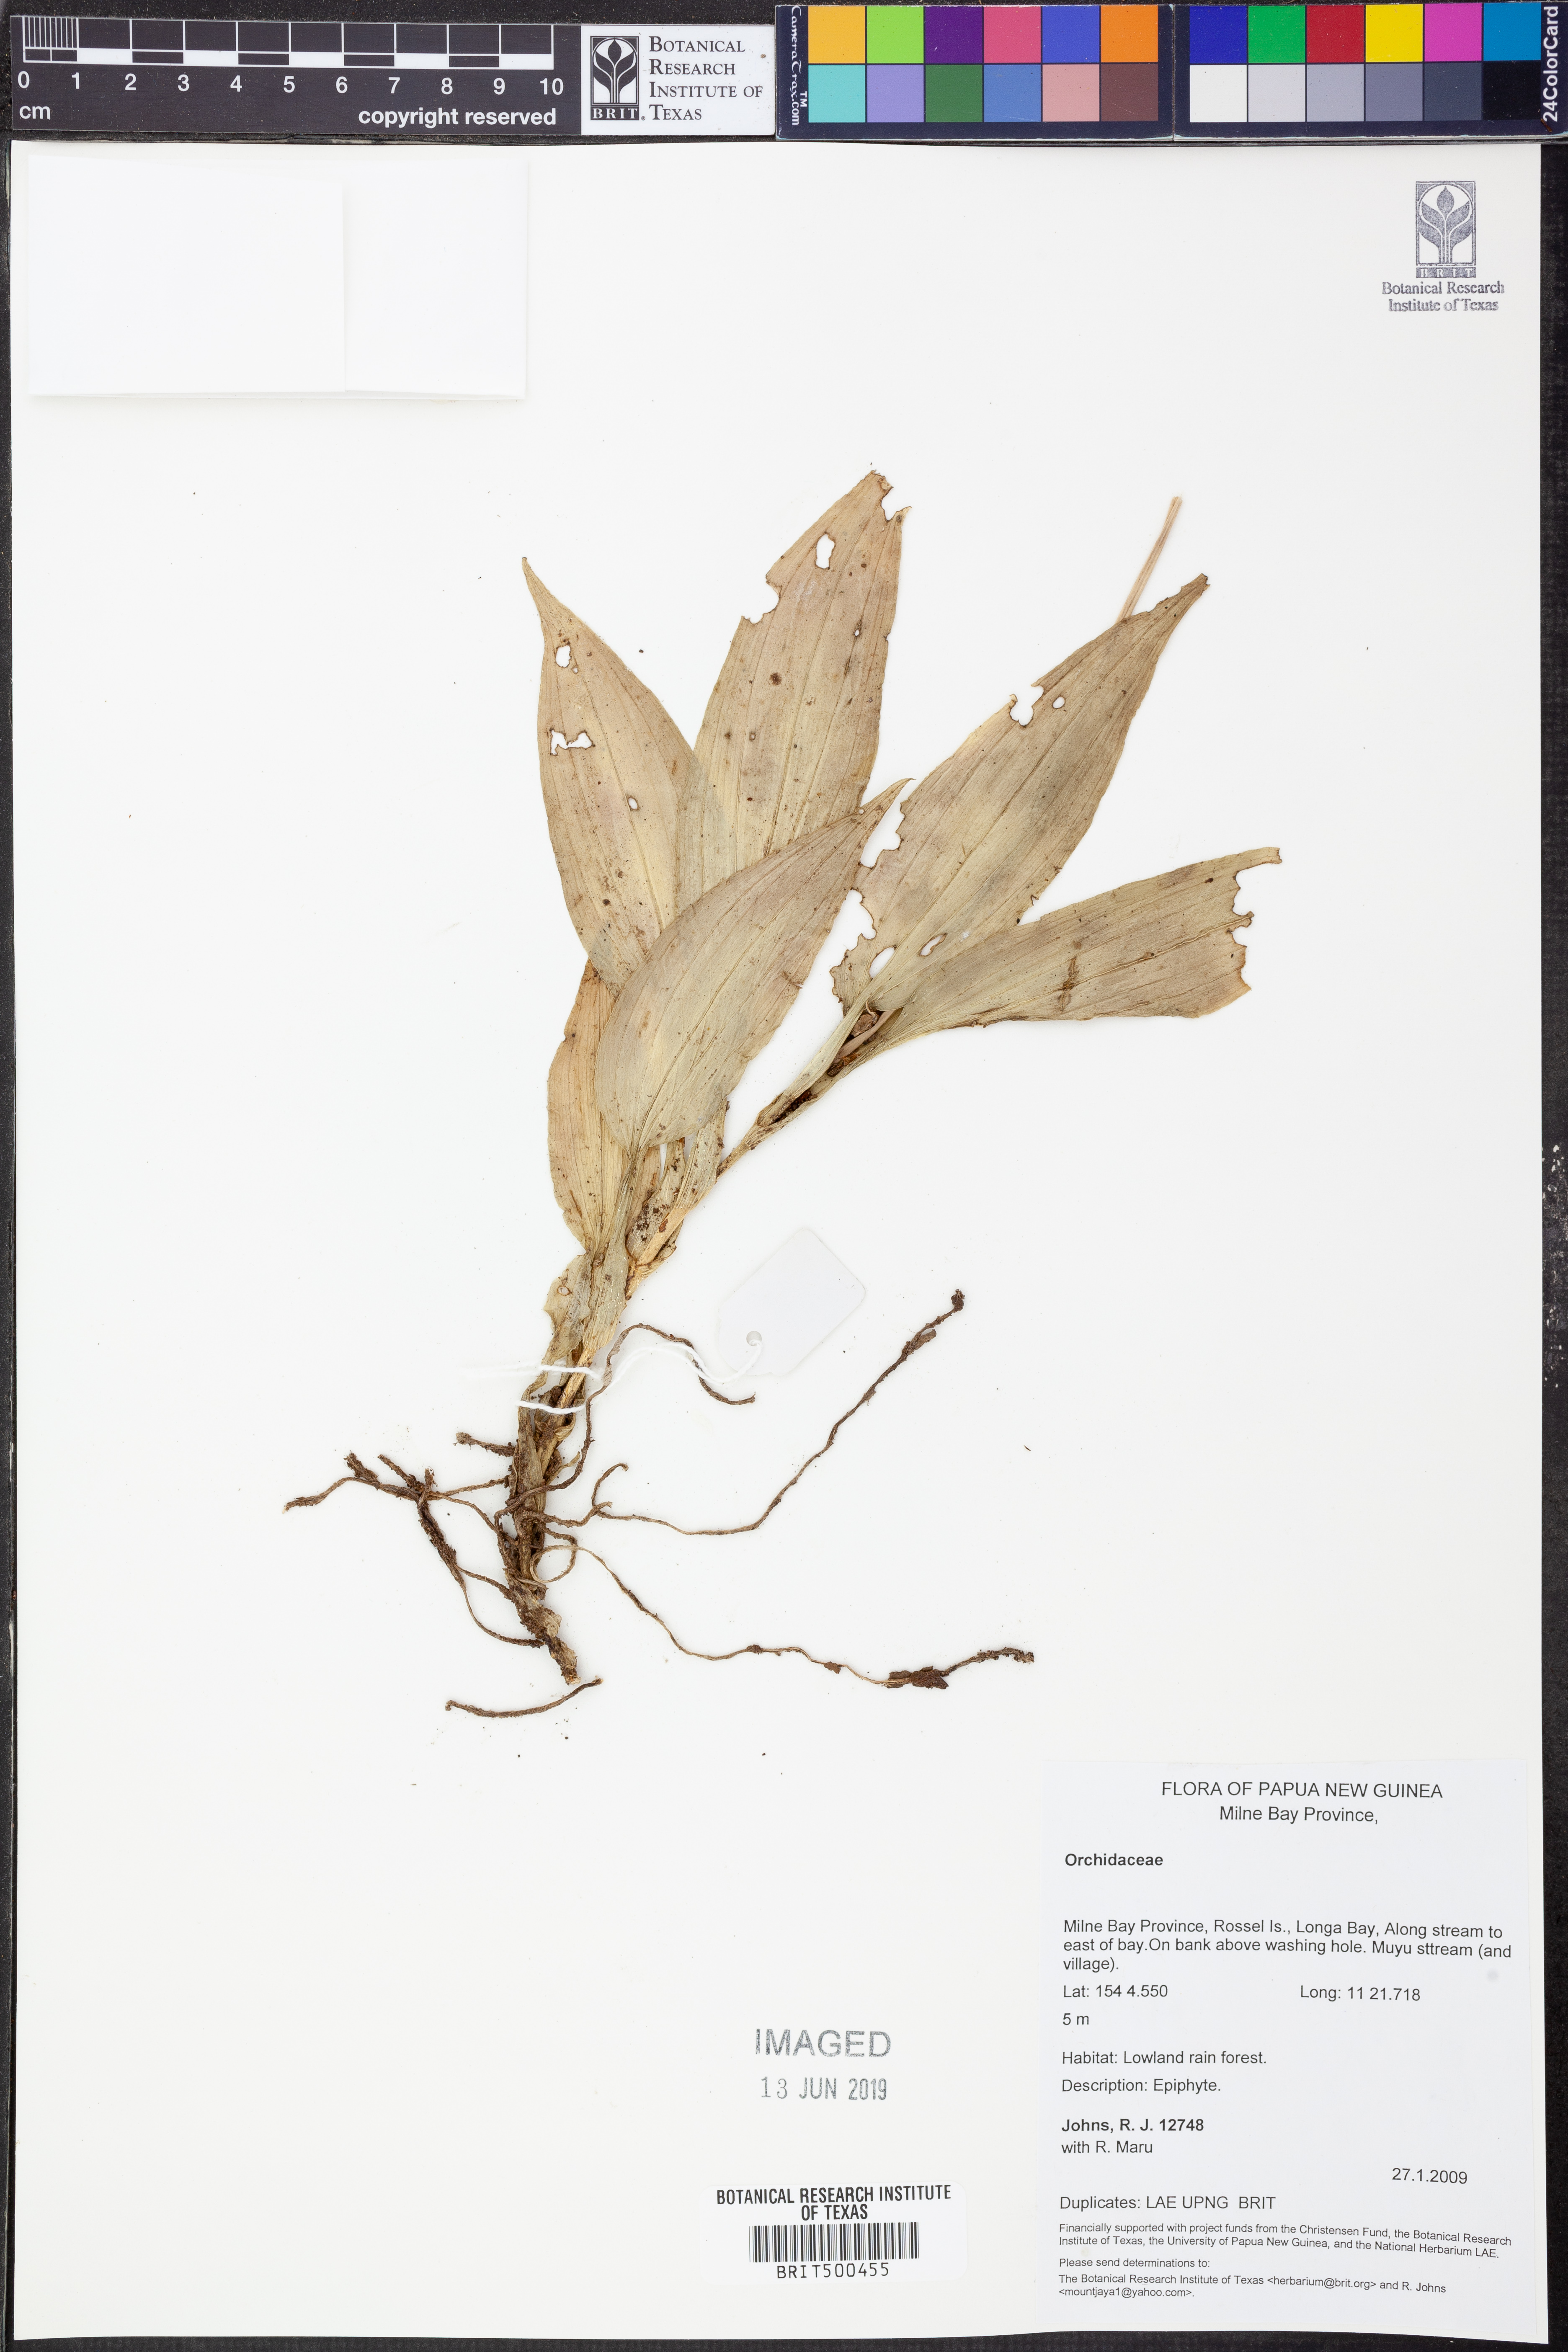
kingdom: Plantae
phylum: Tracheophyta
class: Liliopsida
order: Asparagales
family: Orchidaceae
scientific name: Orchidaceae
